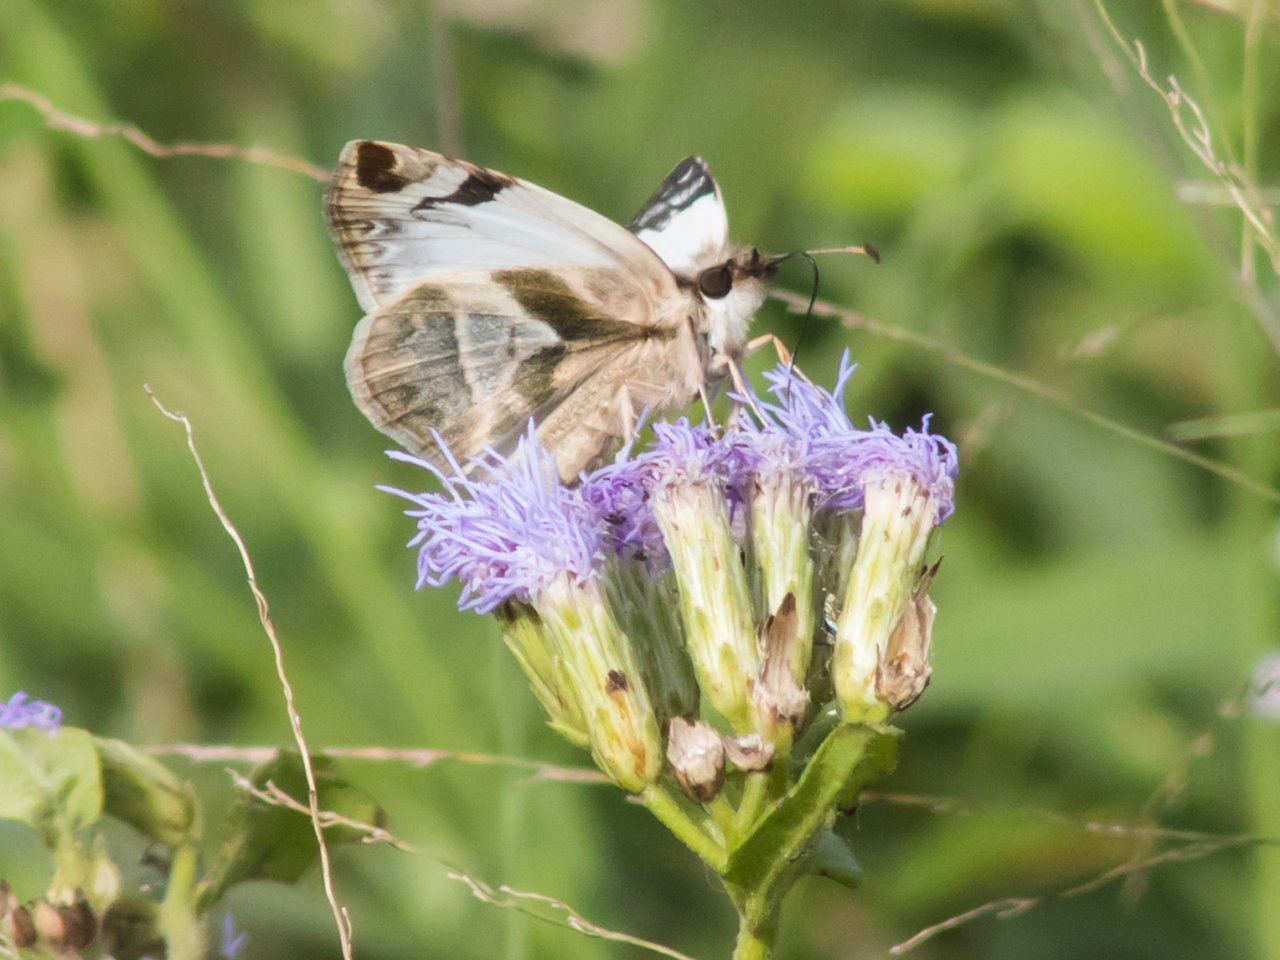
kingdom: Animalia
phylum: Arthropoda
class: Insecta
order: Lepidoptera
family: Hesperiidae
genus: Heliopetes
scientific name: Heliopetes laviana
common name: Laviana White-Skipper
